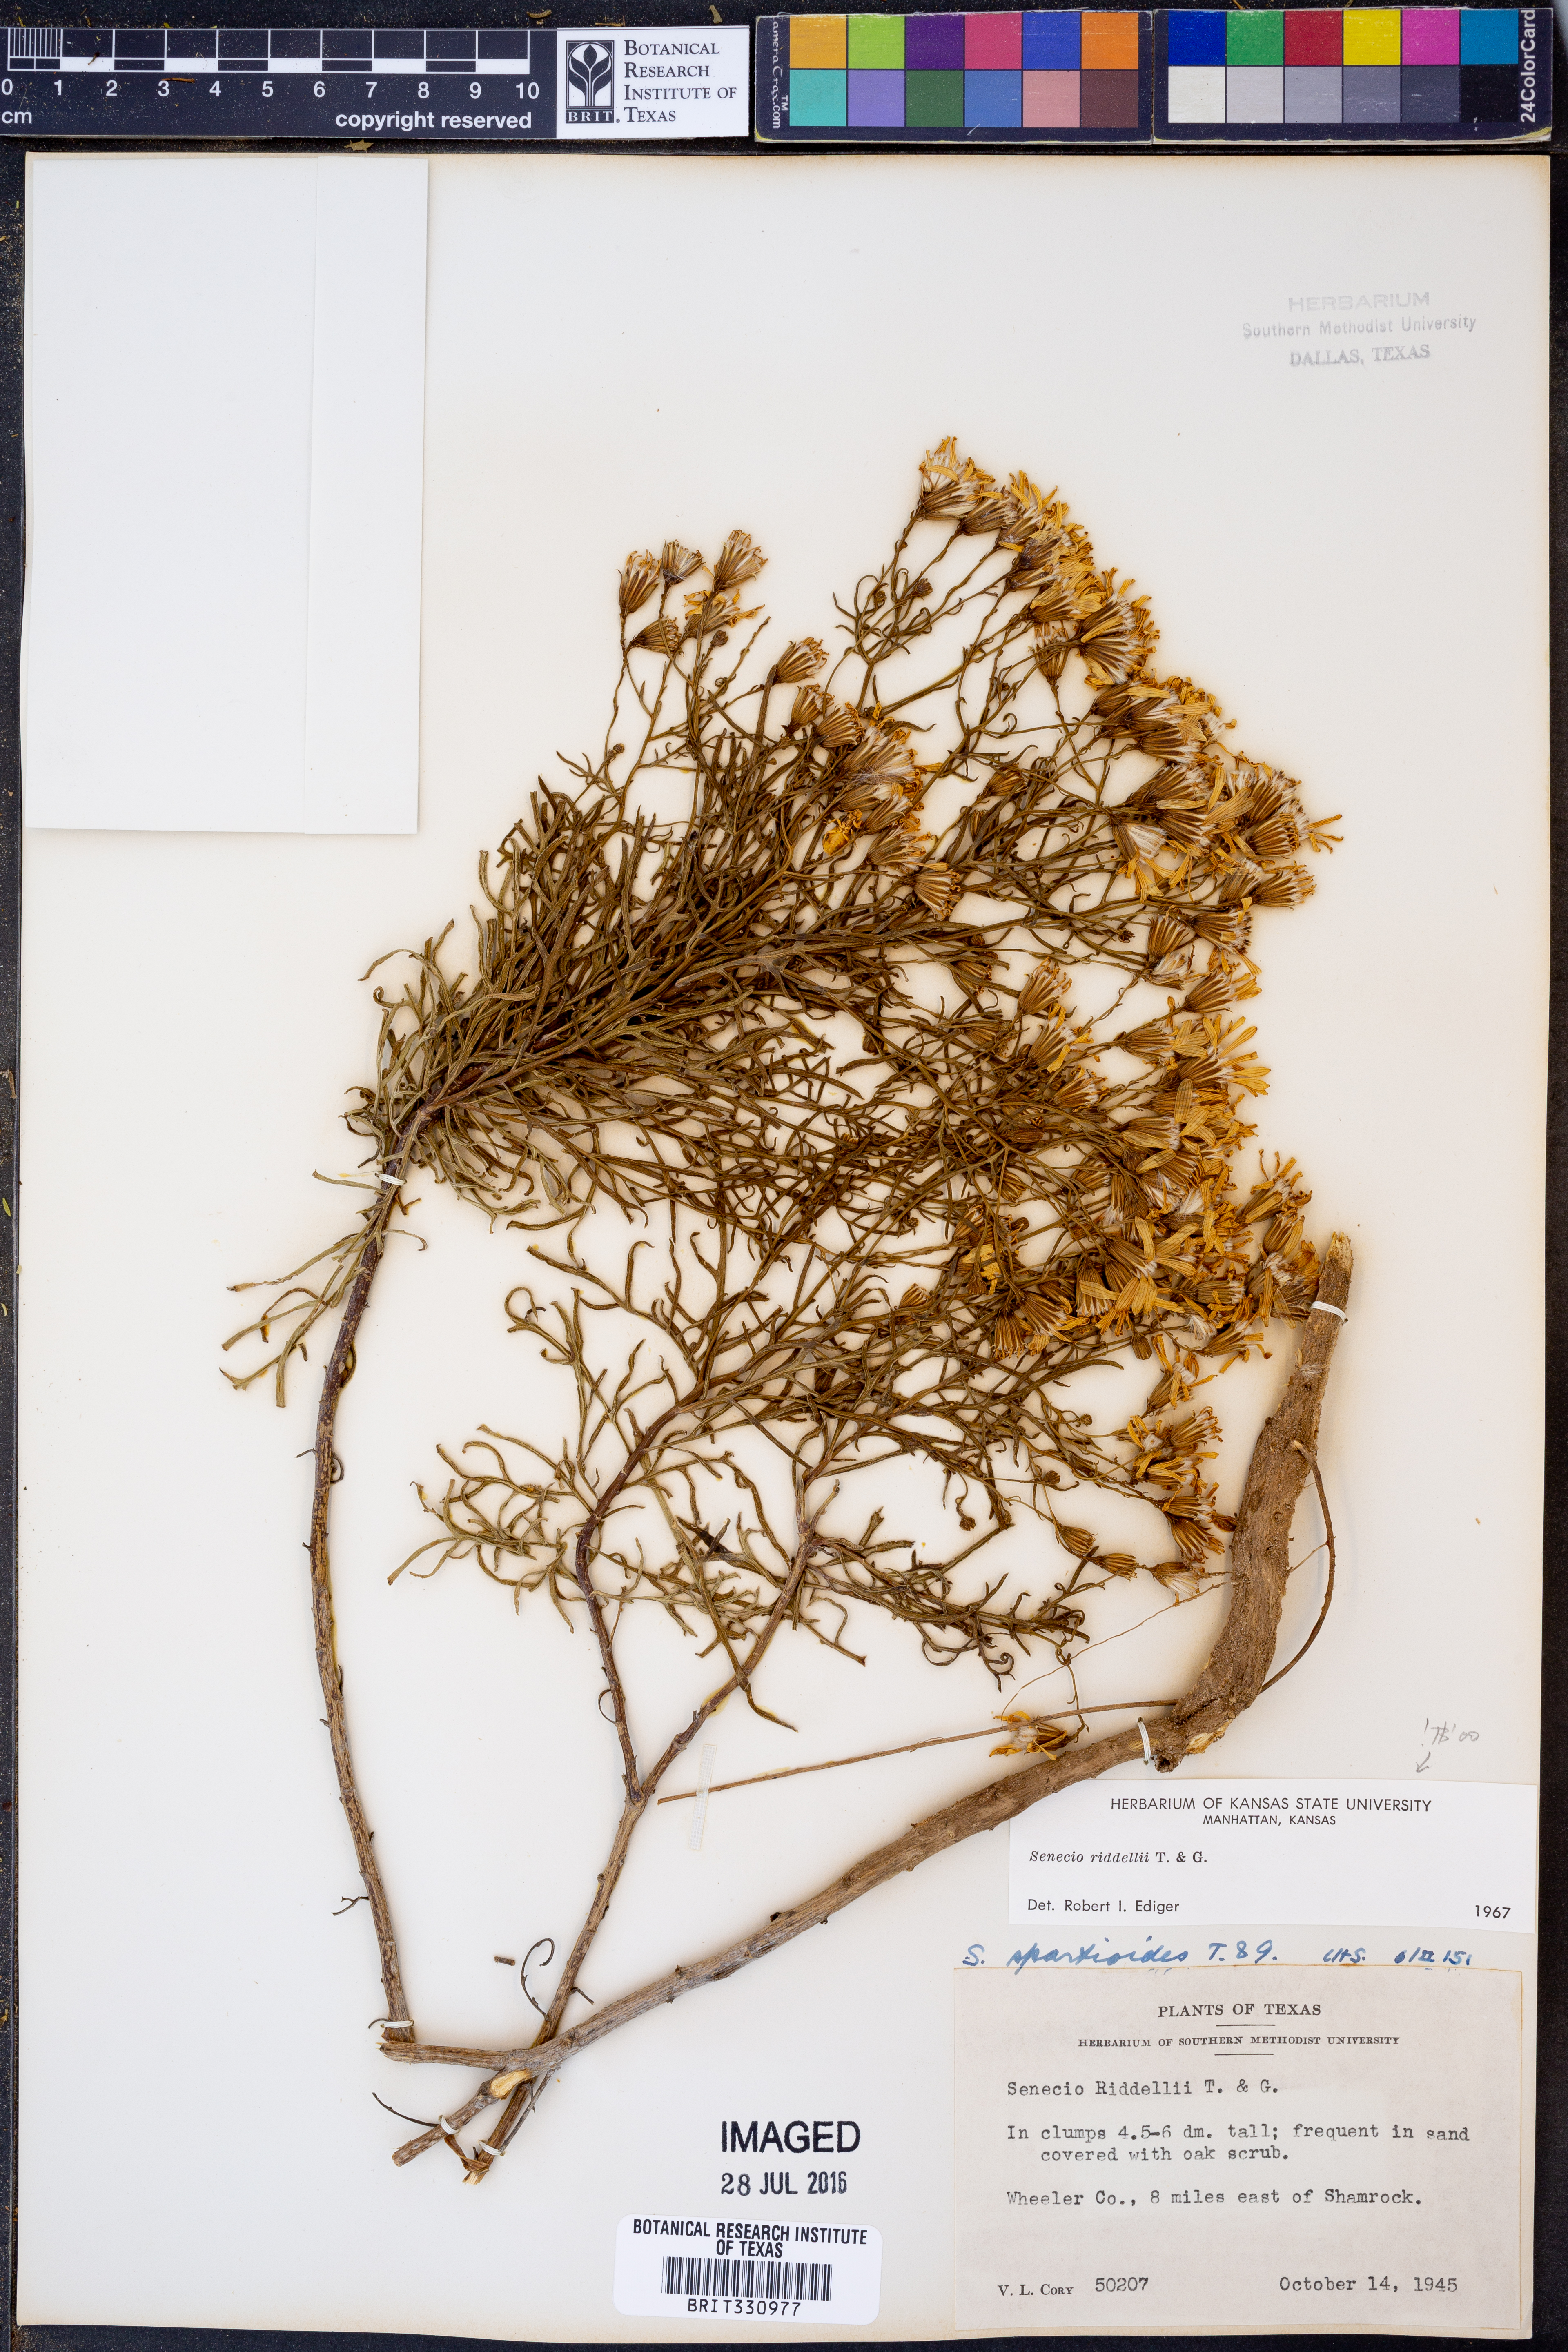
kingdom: Plantae
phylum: Tracheophyta
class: Magnoliopsida
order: Asterales
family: Asteraceae
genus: Senecio
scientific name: Senecio riddellii
